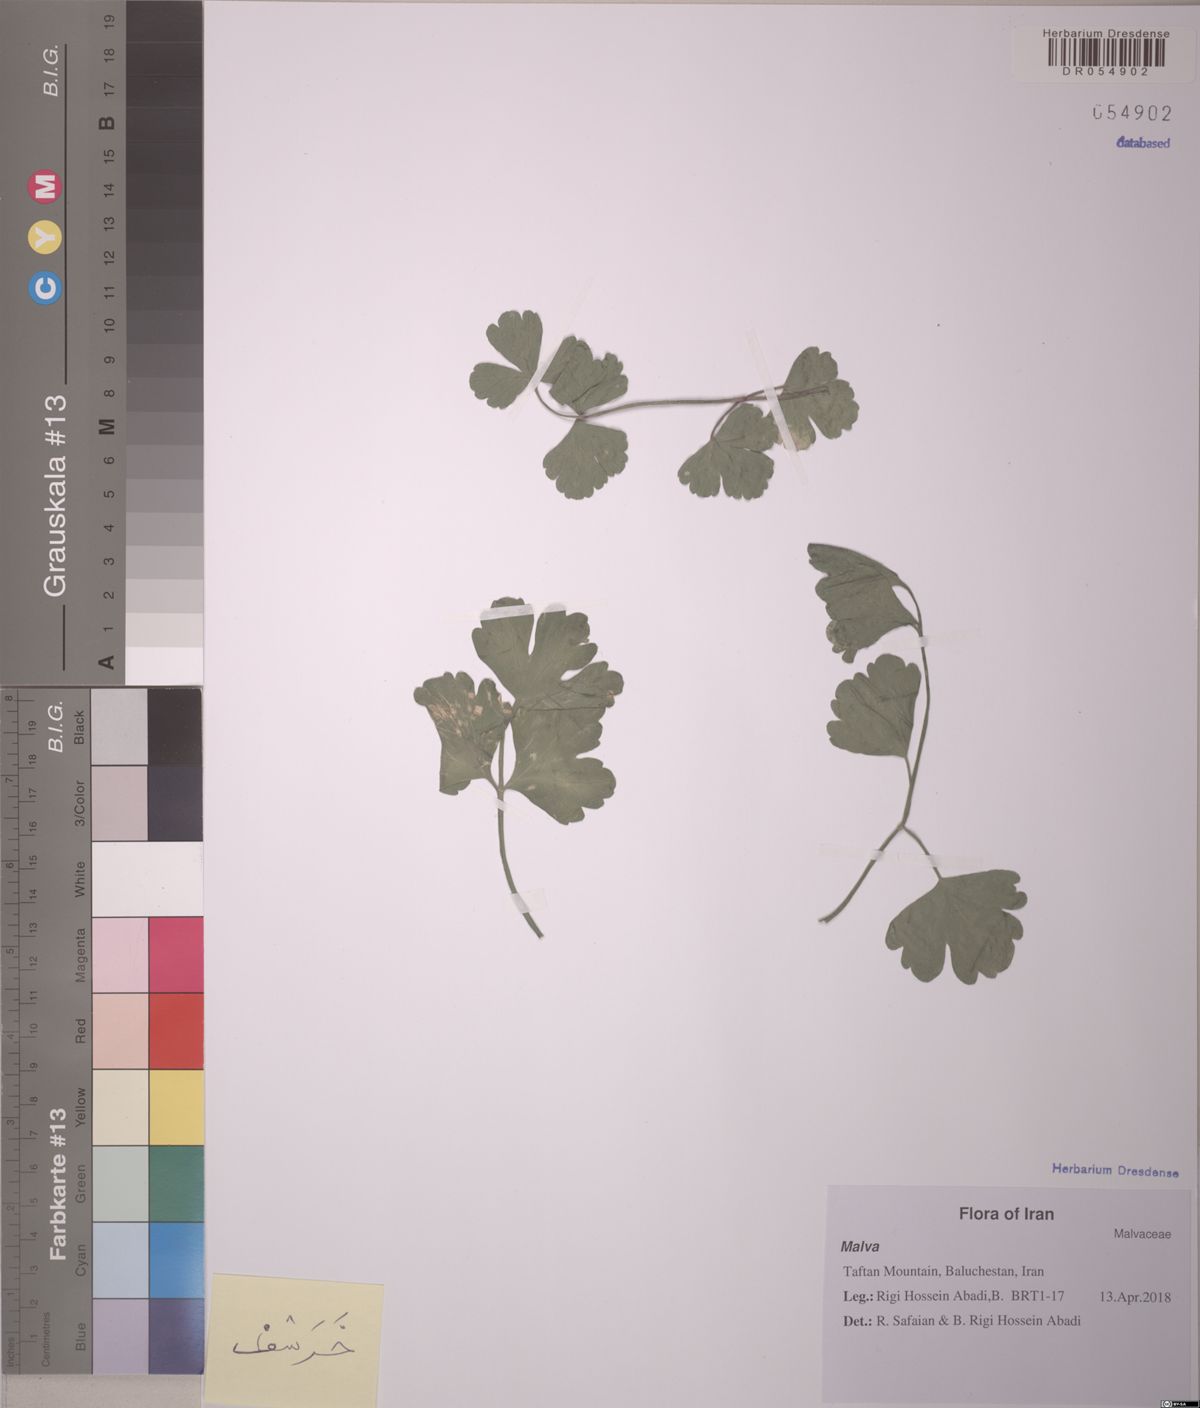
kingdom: Plantae
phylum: Tracheophyta
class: Magnoliopsida
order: Apiales
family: Apiaceae
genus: Apium
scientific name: Apium graveolens
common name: Wild celery
